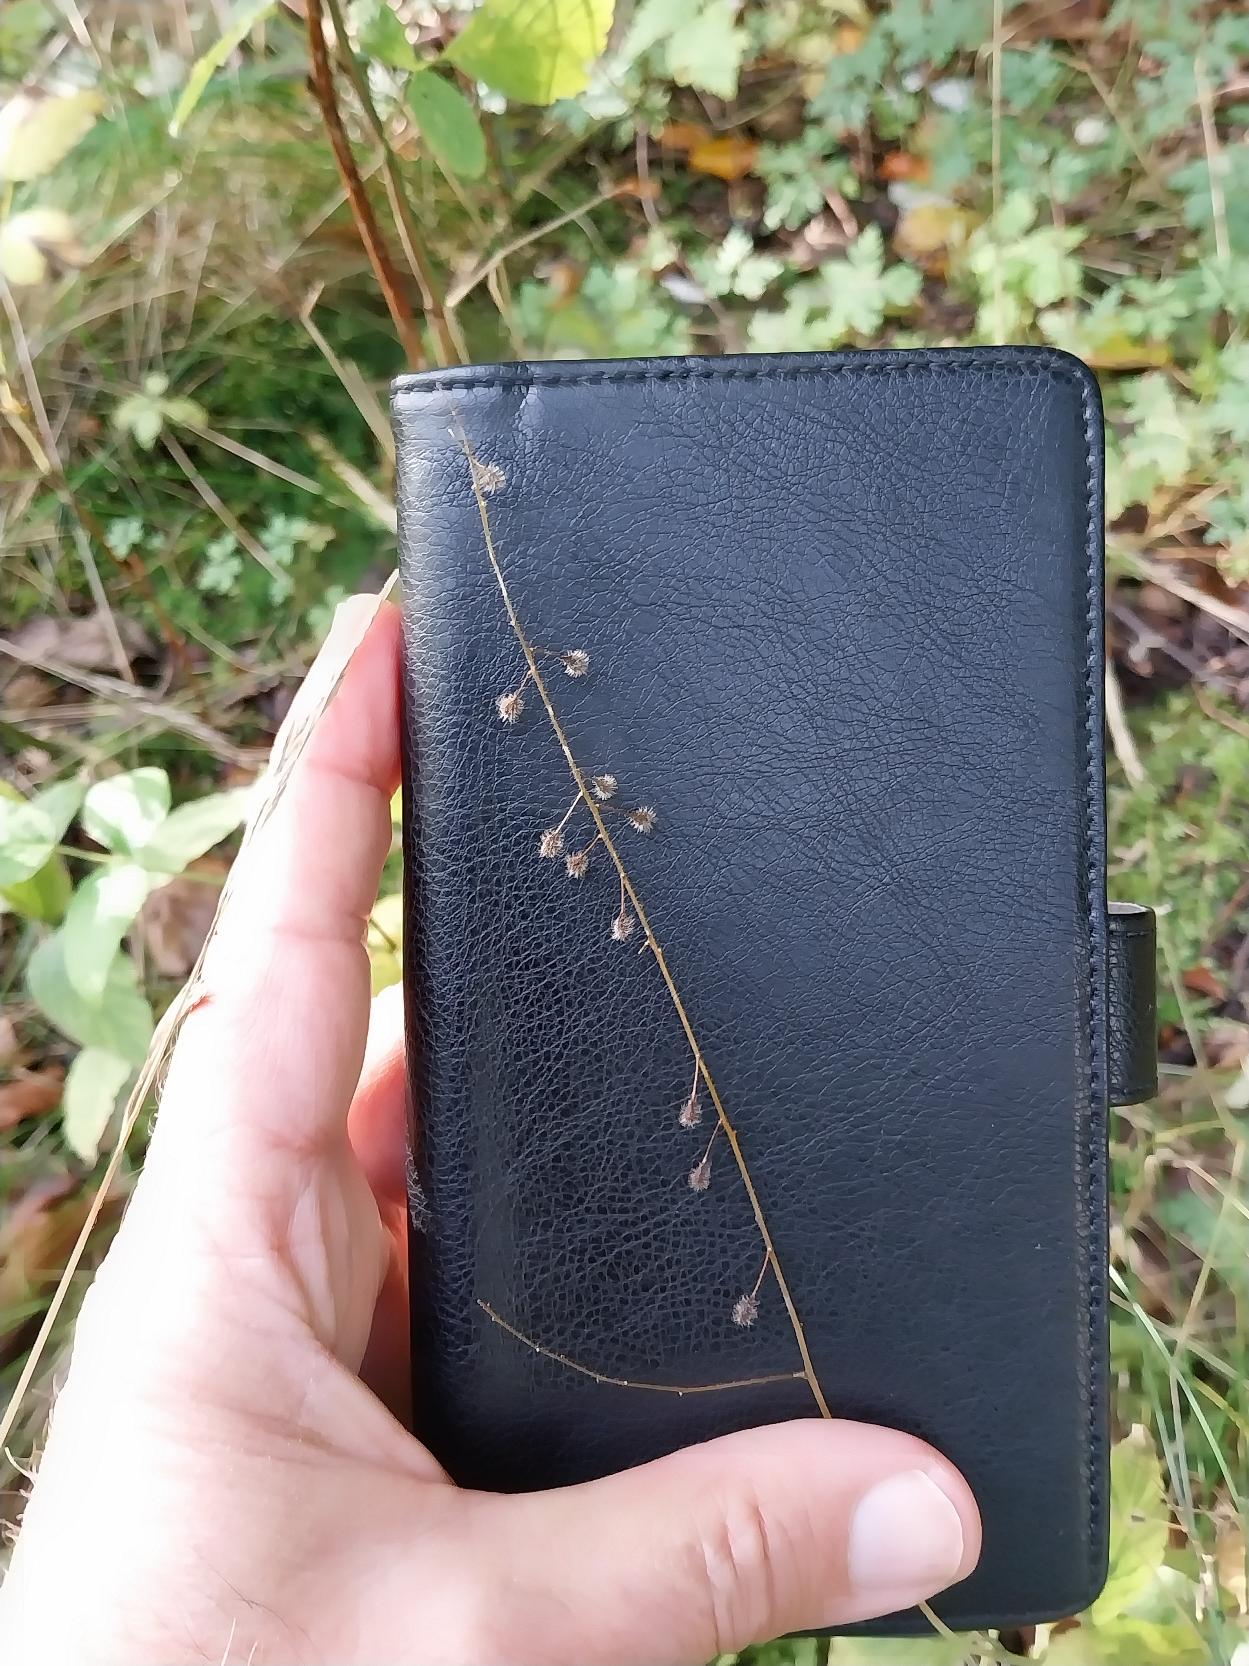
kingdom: Plantae
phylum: Tracheophyta
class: Magnoliopsida
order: Myrtales
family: Onagraceae
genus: Circaea
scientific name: Circaea lutetiana
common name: Dunet steffensurt
